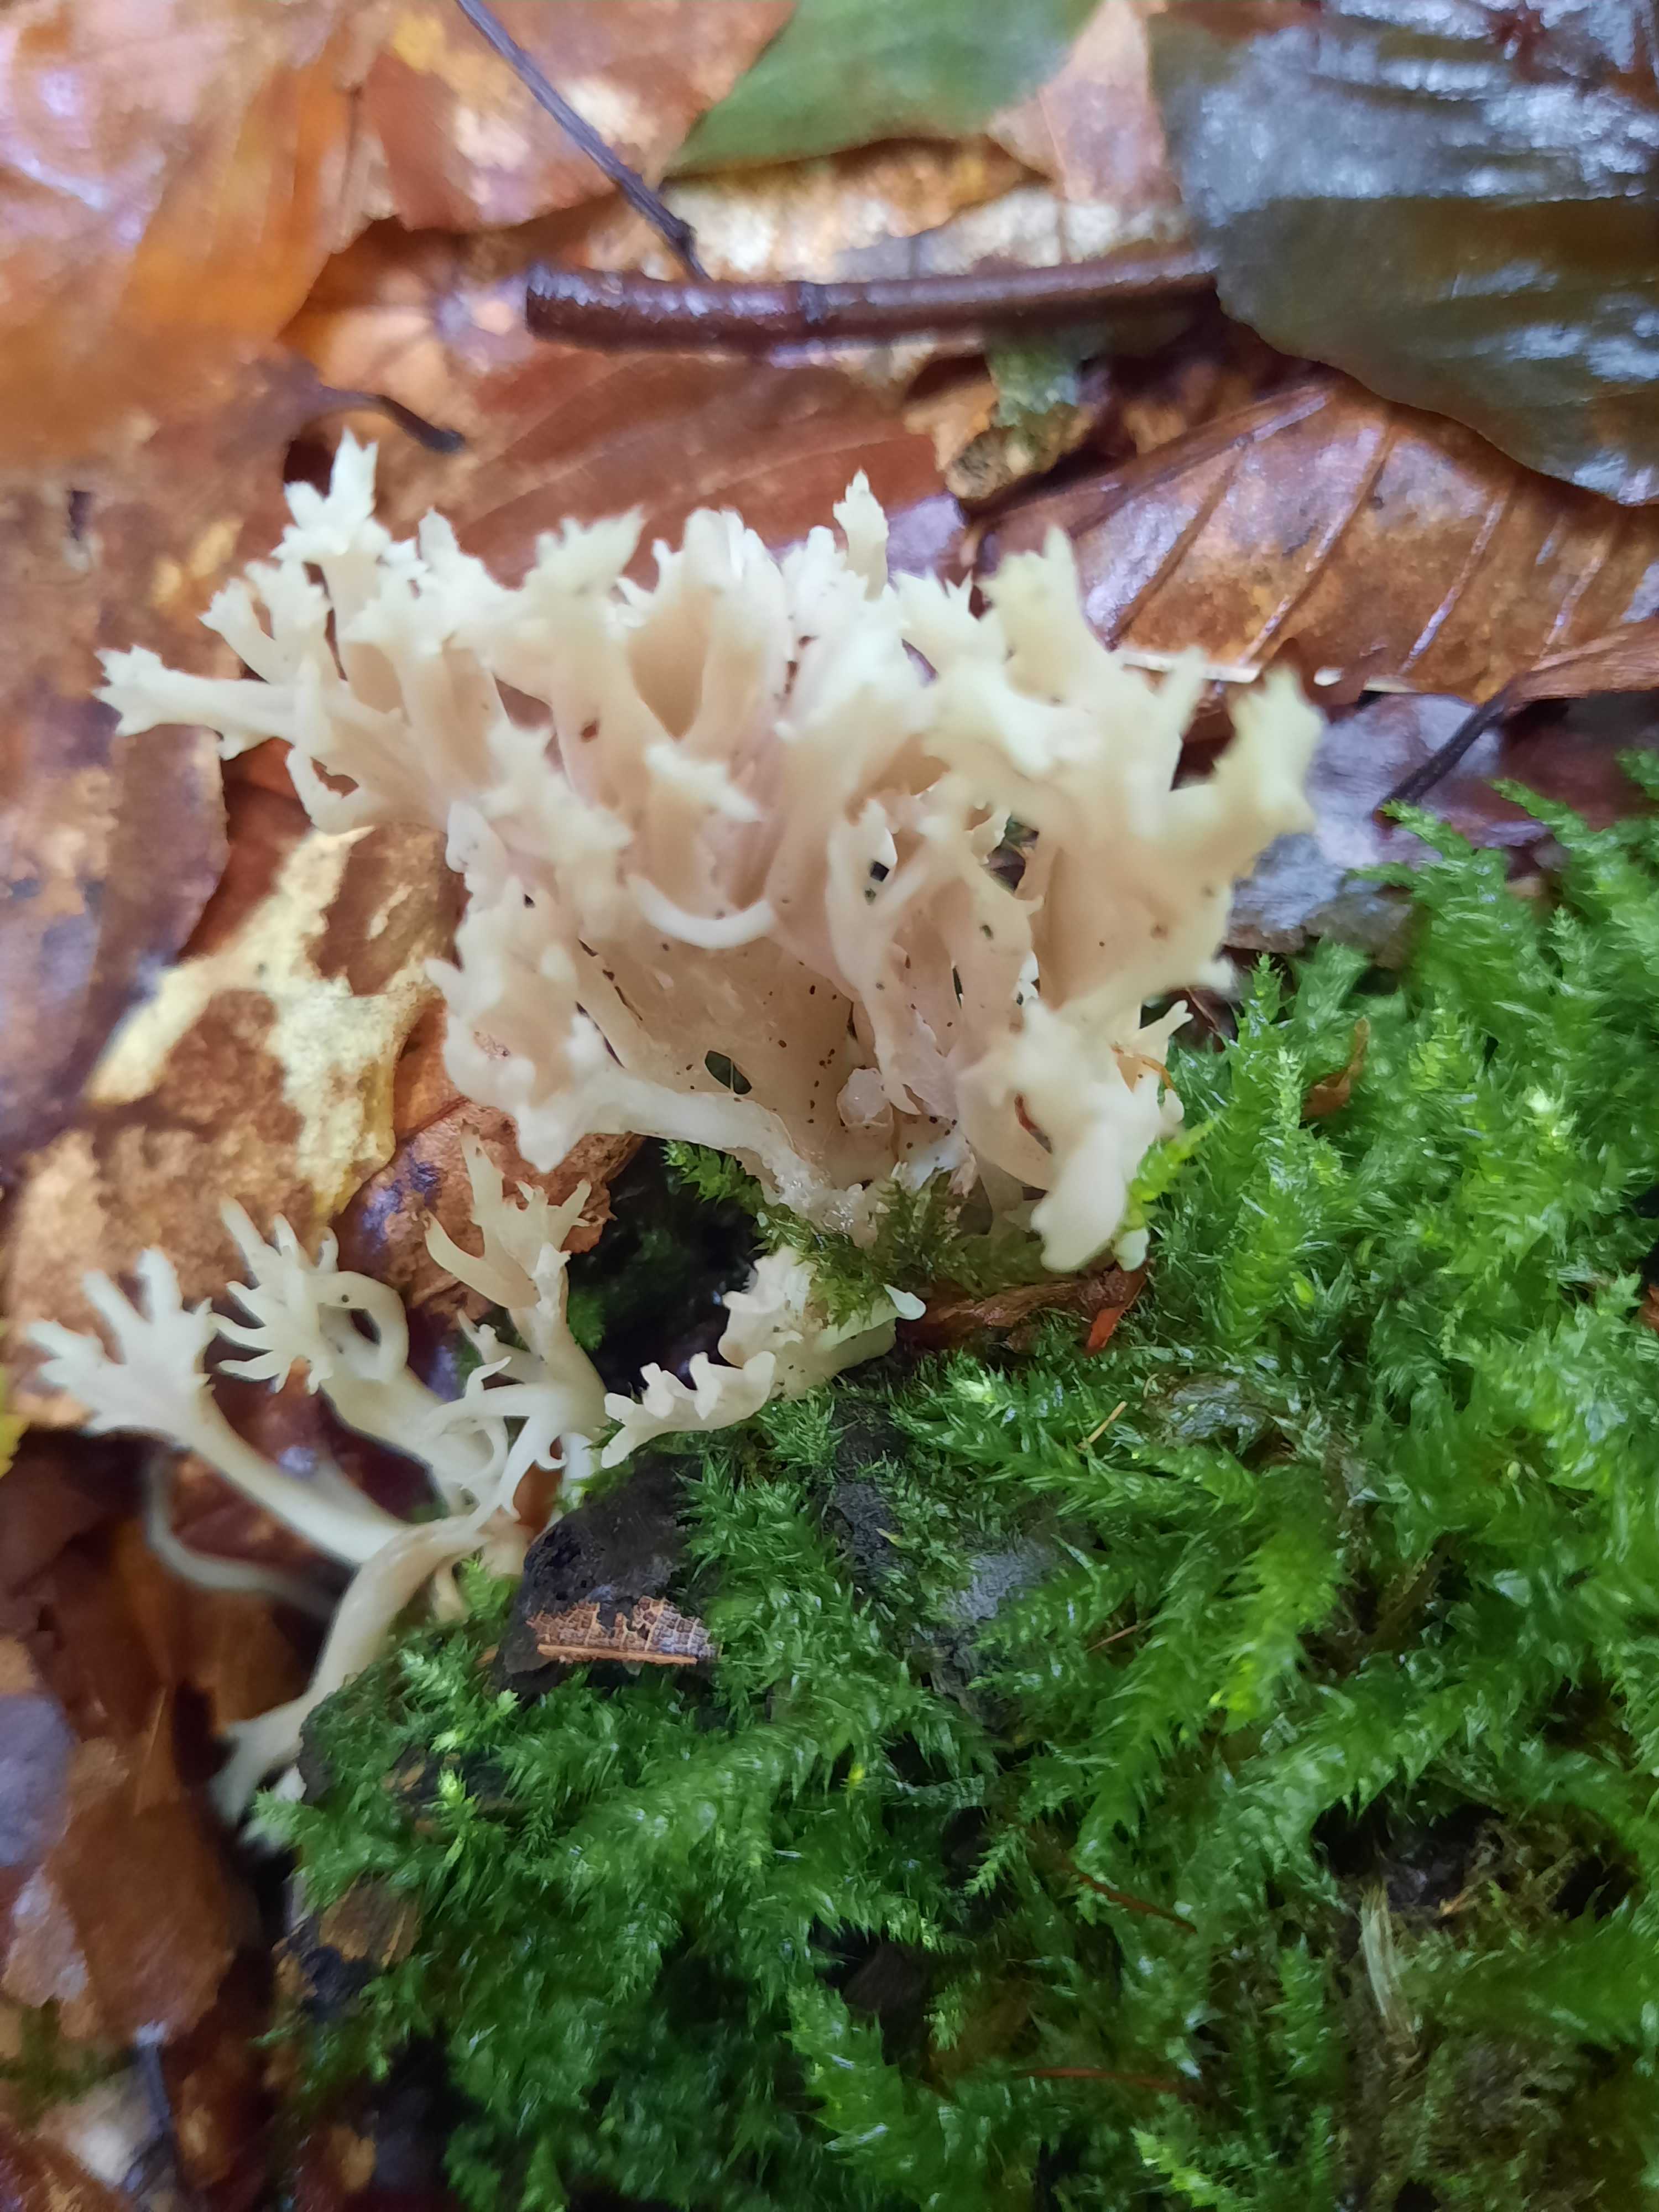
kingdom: Fungi
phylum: Basidiomycota
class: Agaricomycetes
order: Cantharellales
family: Hydnaceae
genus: Clavulina
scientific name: Clavulina
